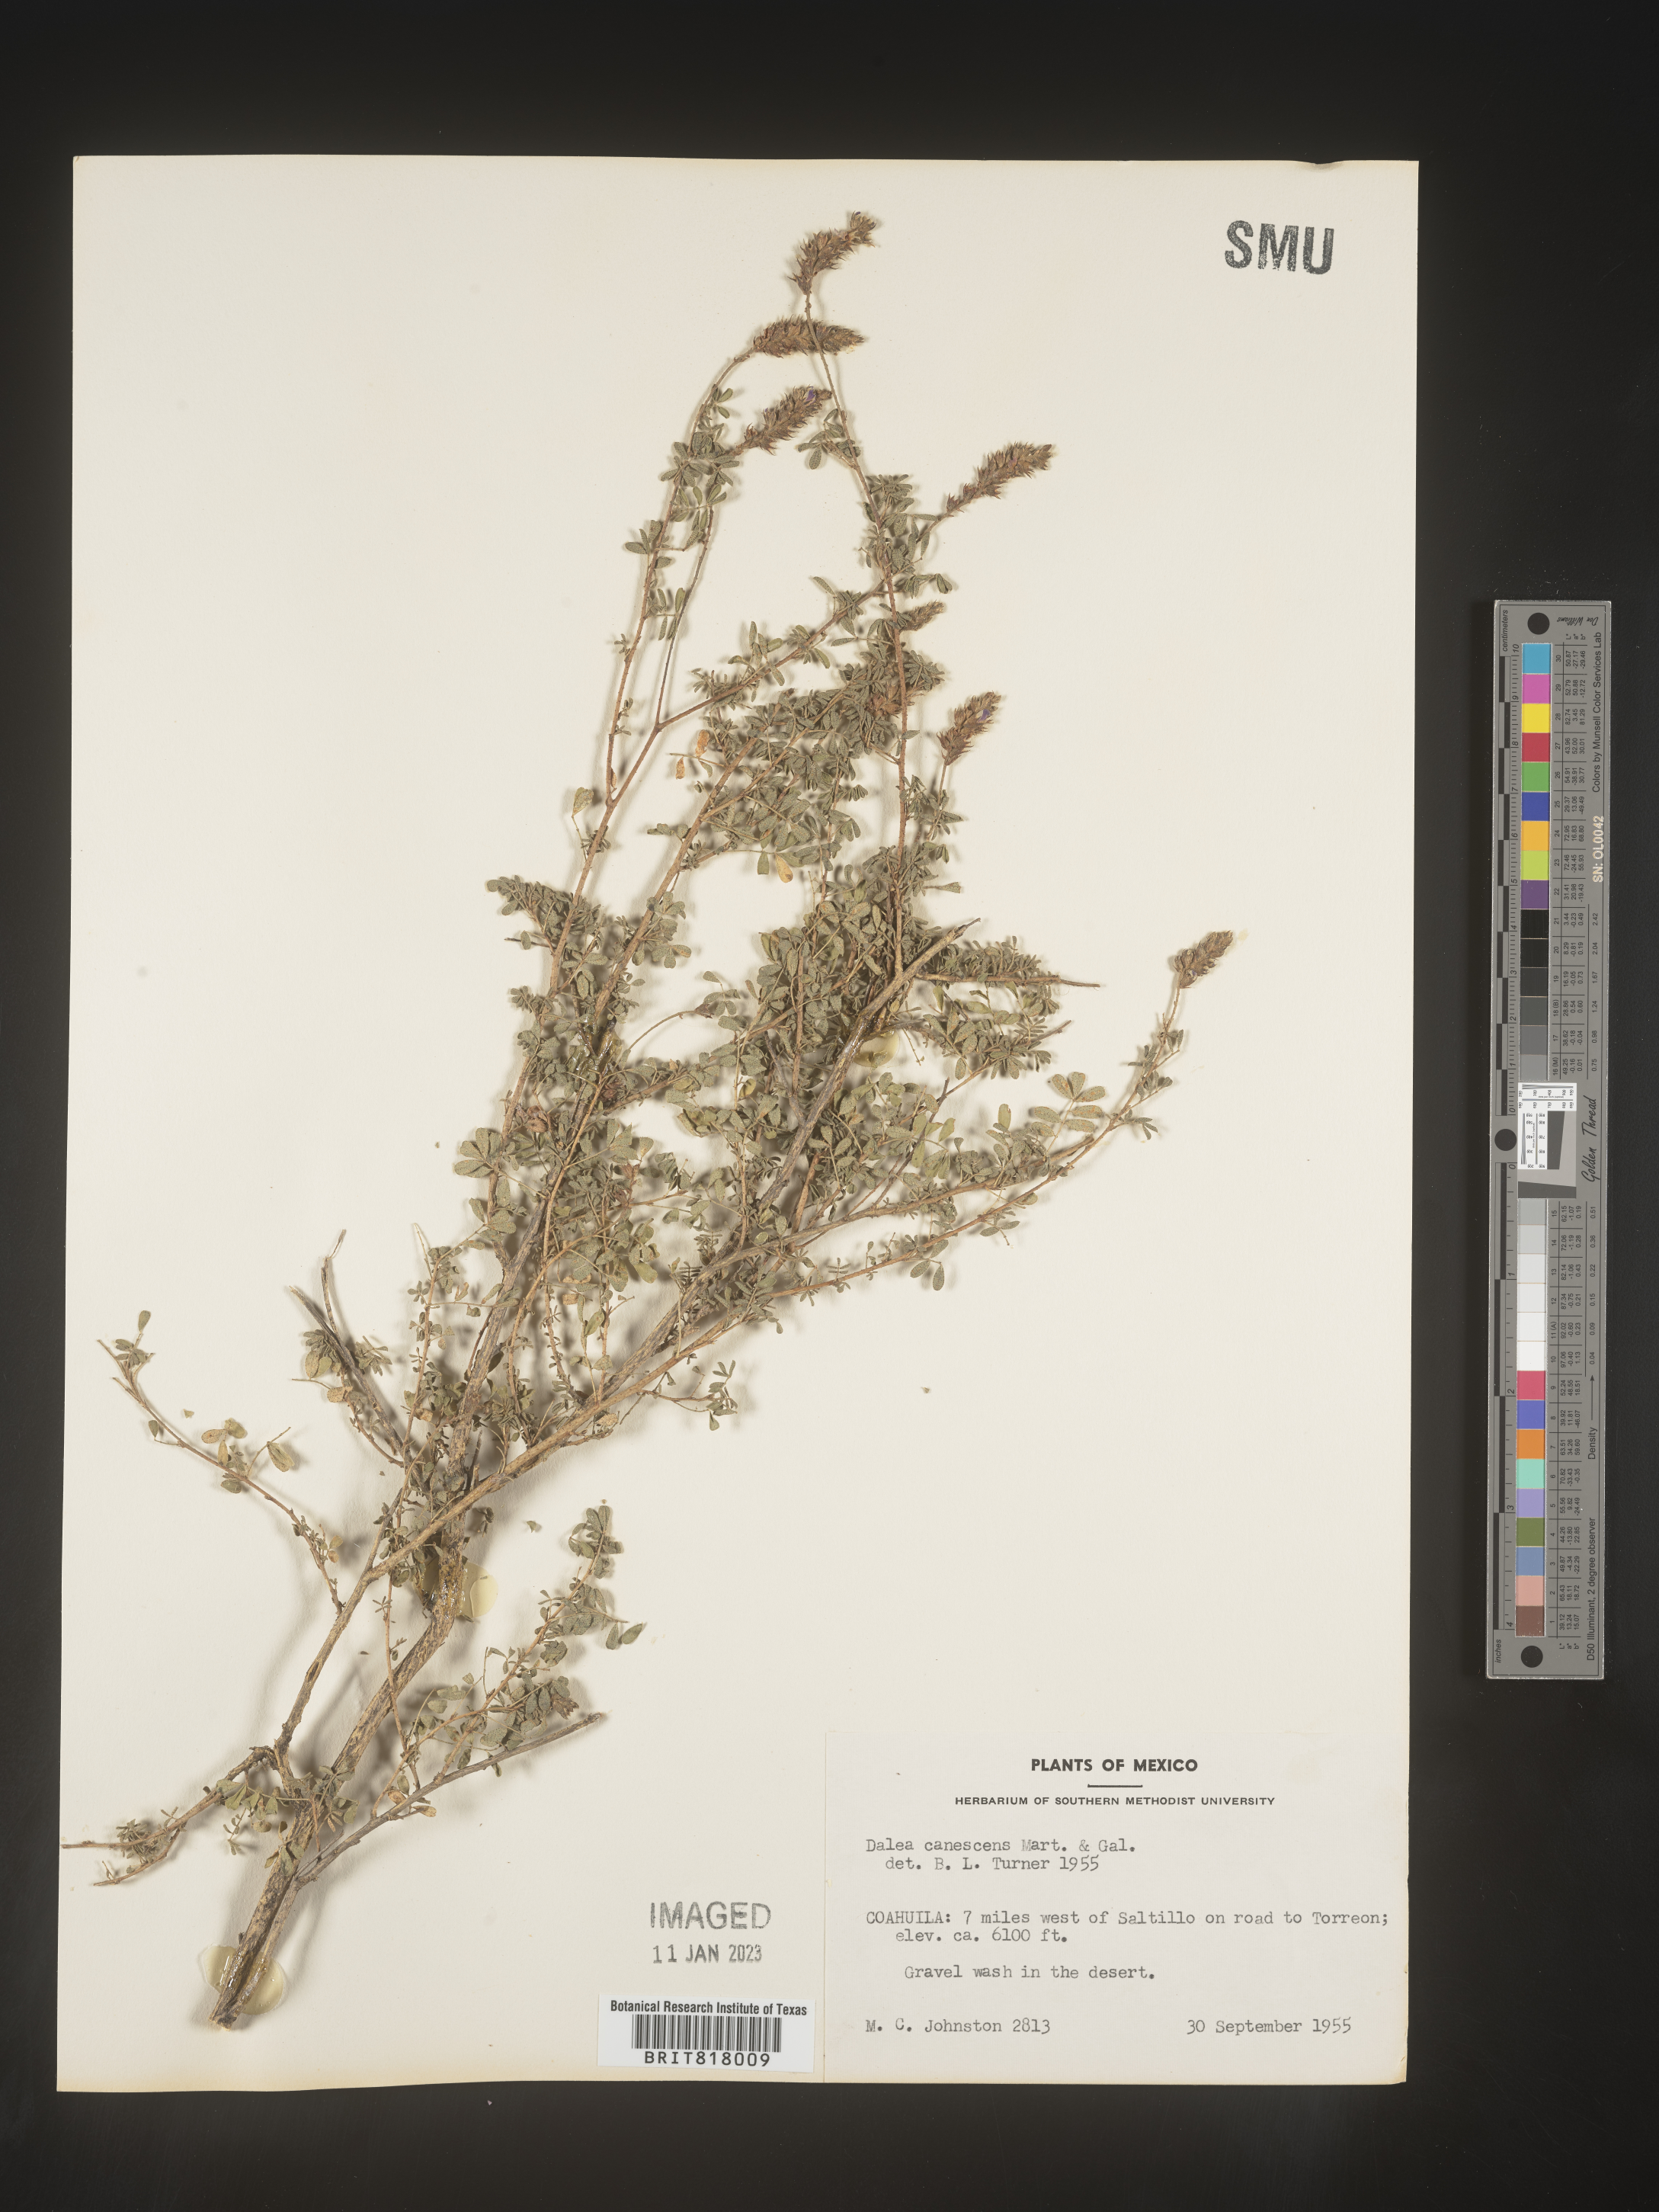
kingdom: Plantae
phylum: Tracheophyta
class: Magnoliopsida
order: Fabales
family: Fabaceae
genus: Dalea
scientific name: Dalea
